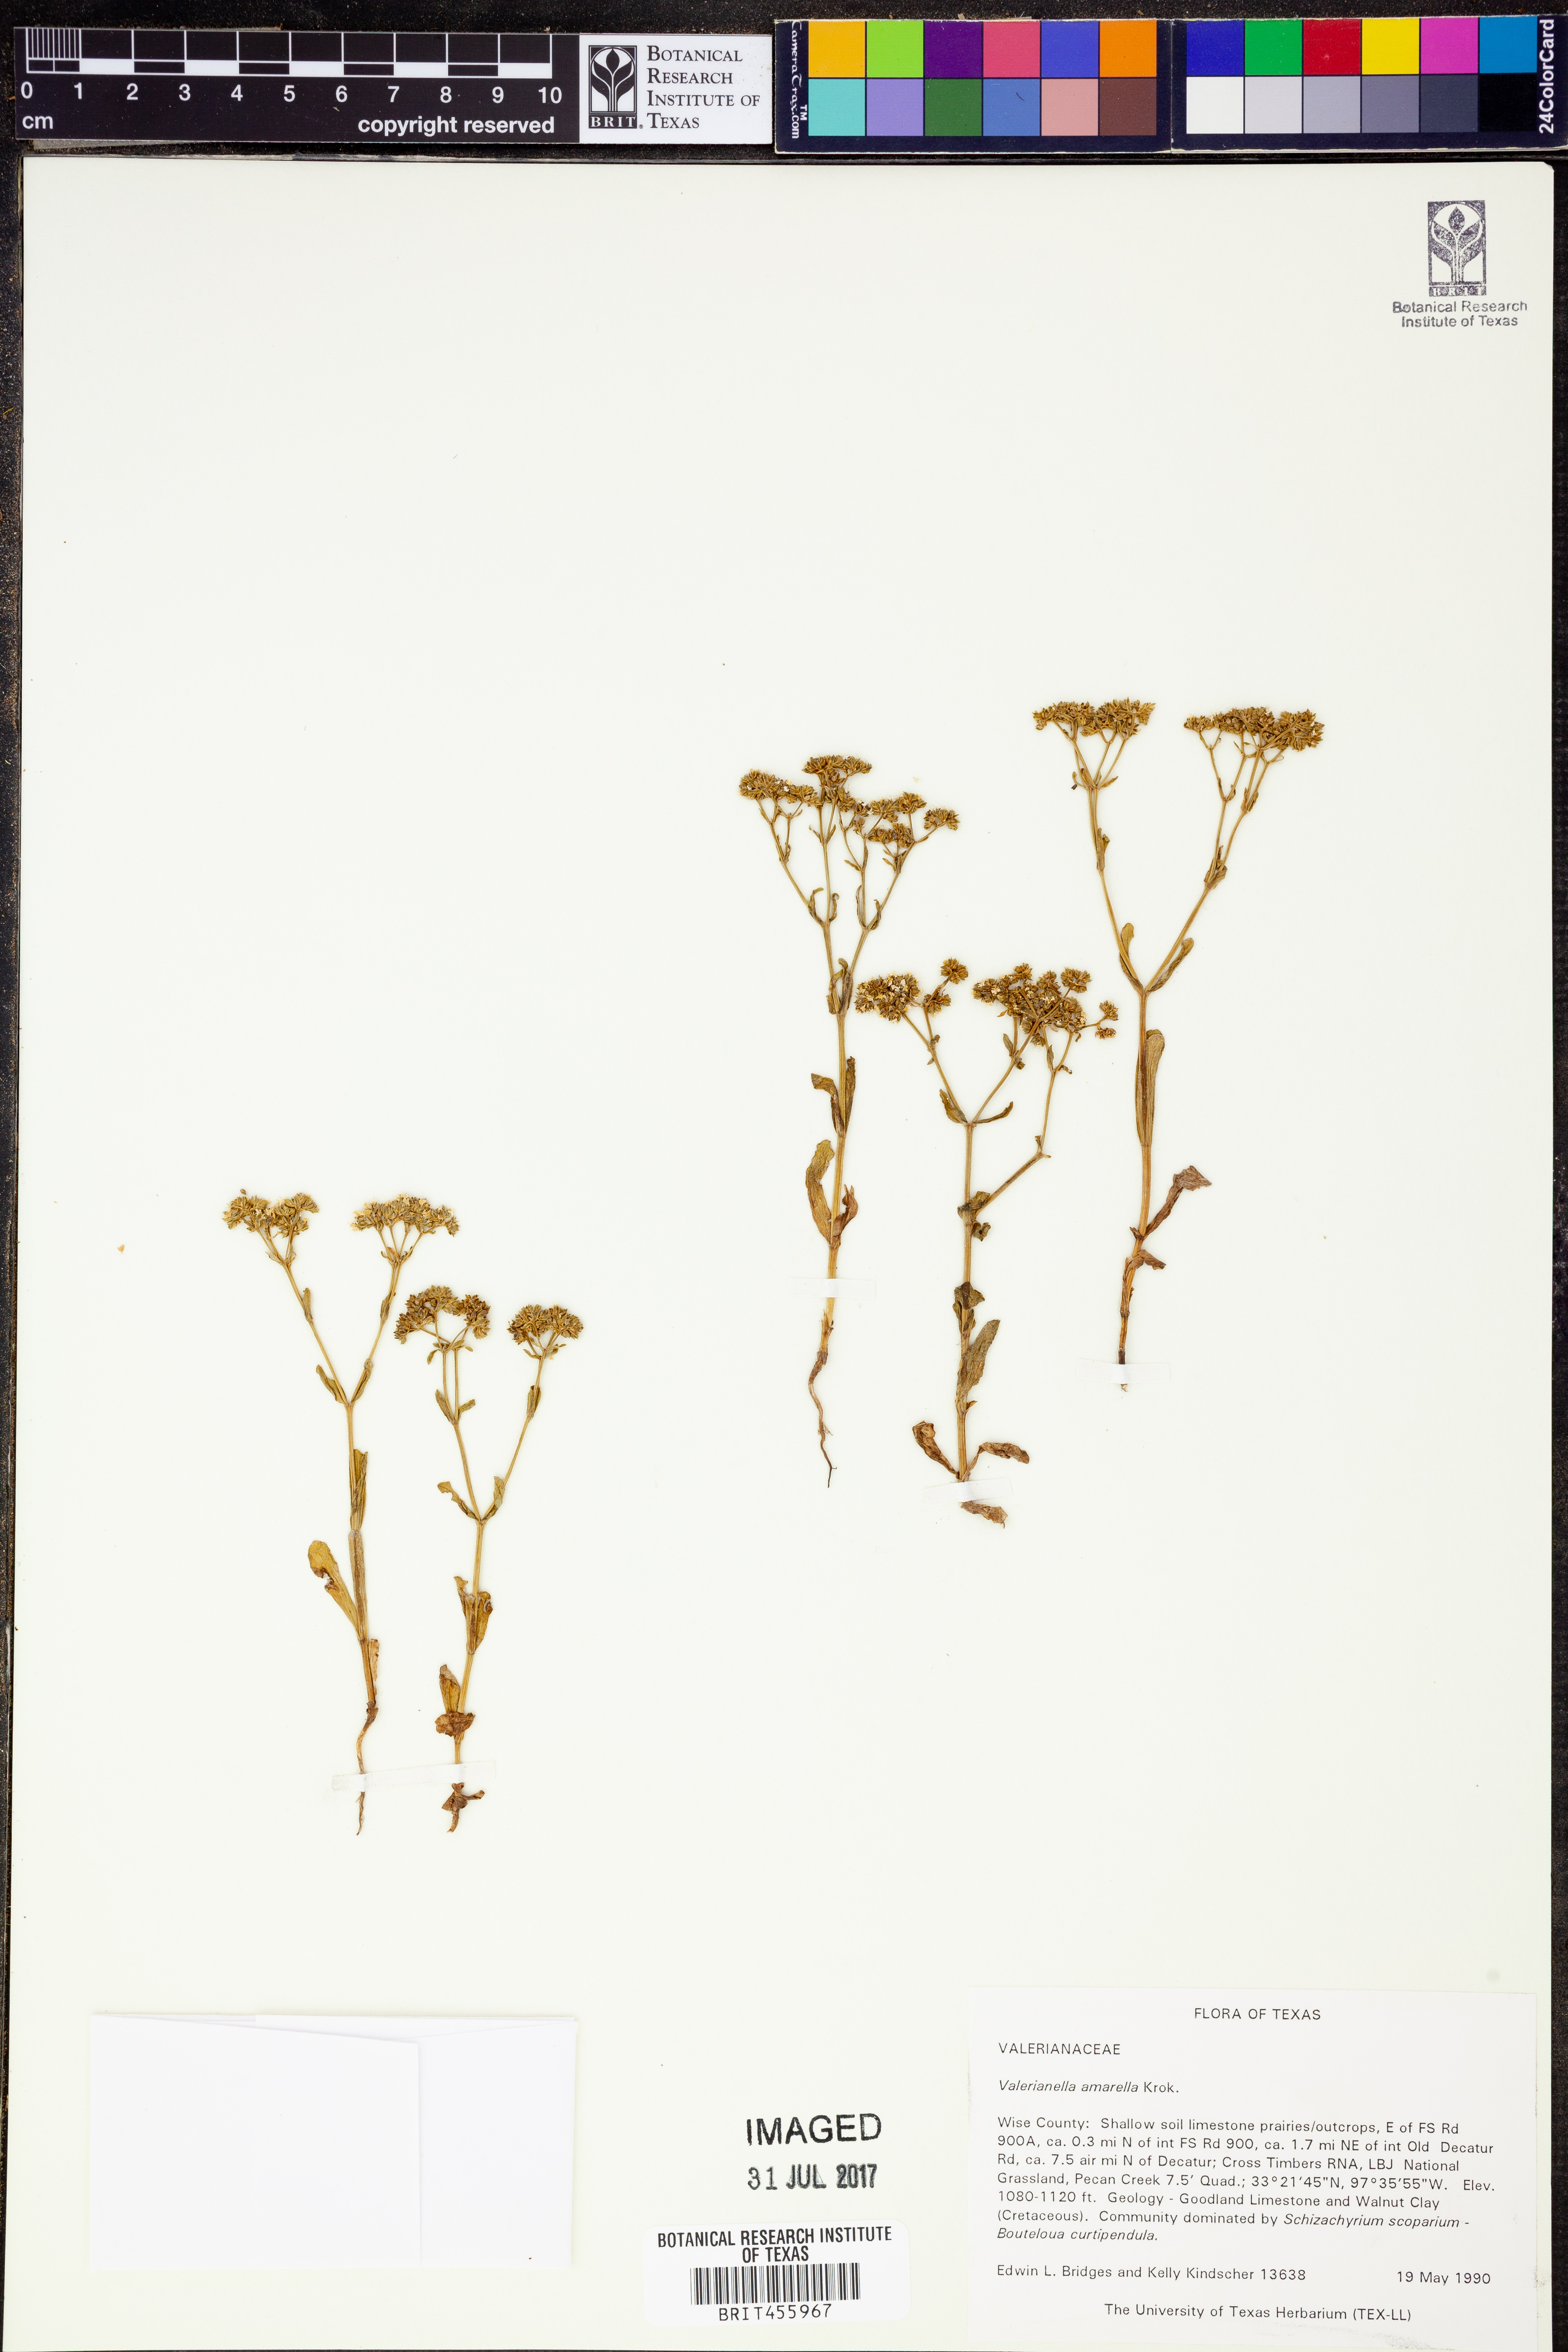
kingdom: Plantae
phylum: Tracheophyta
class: Magnoliopsida
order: Dipsacales
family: Caprifoliaceae
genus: Valerianella
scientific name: Valerianella amarella
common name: Hariy cornsalad
